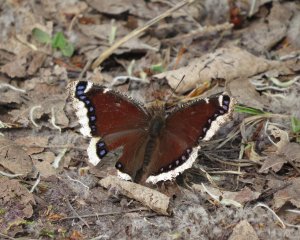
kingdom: Animalia
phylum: Arthropoda
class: Insecta
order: Lepidoptera
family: Nymphalidae
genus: Nymphalis
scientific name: Nymphalis antiopa
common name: Mourning Cloak
